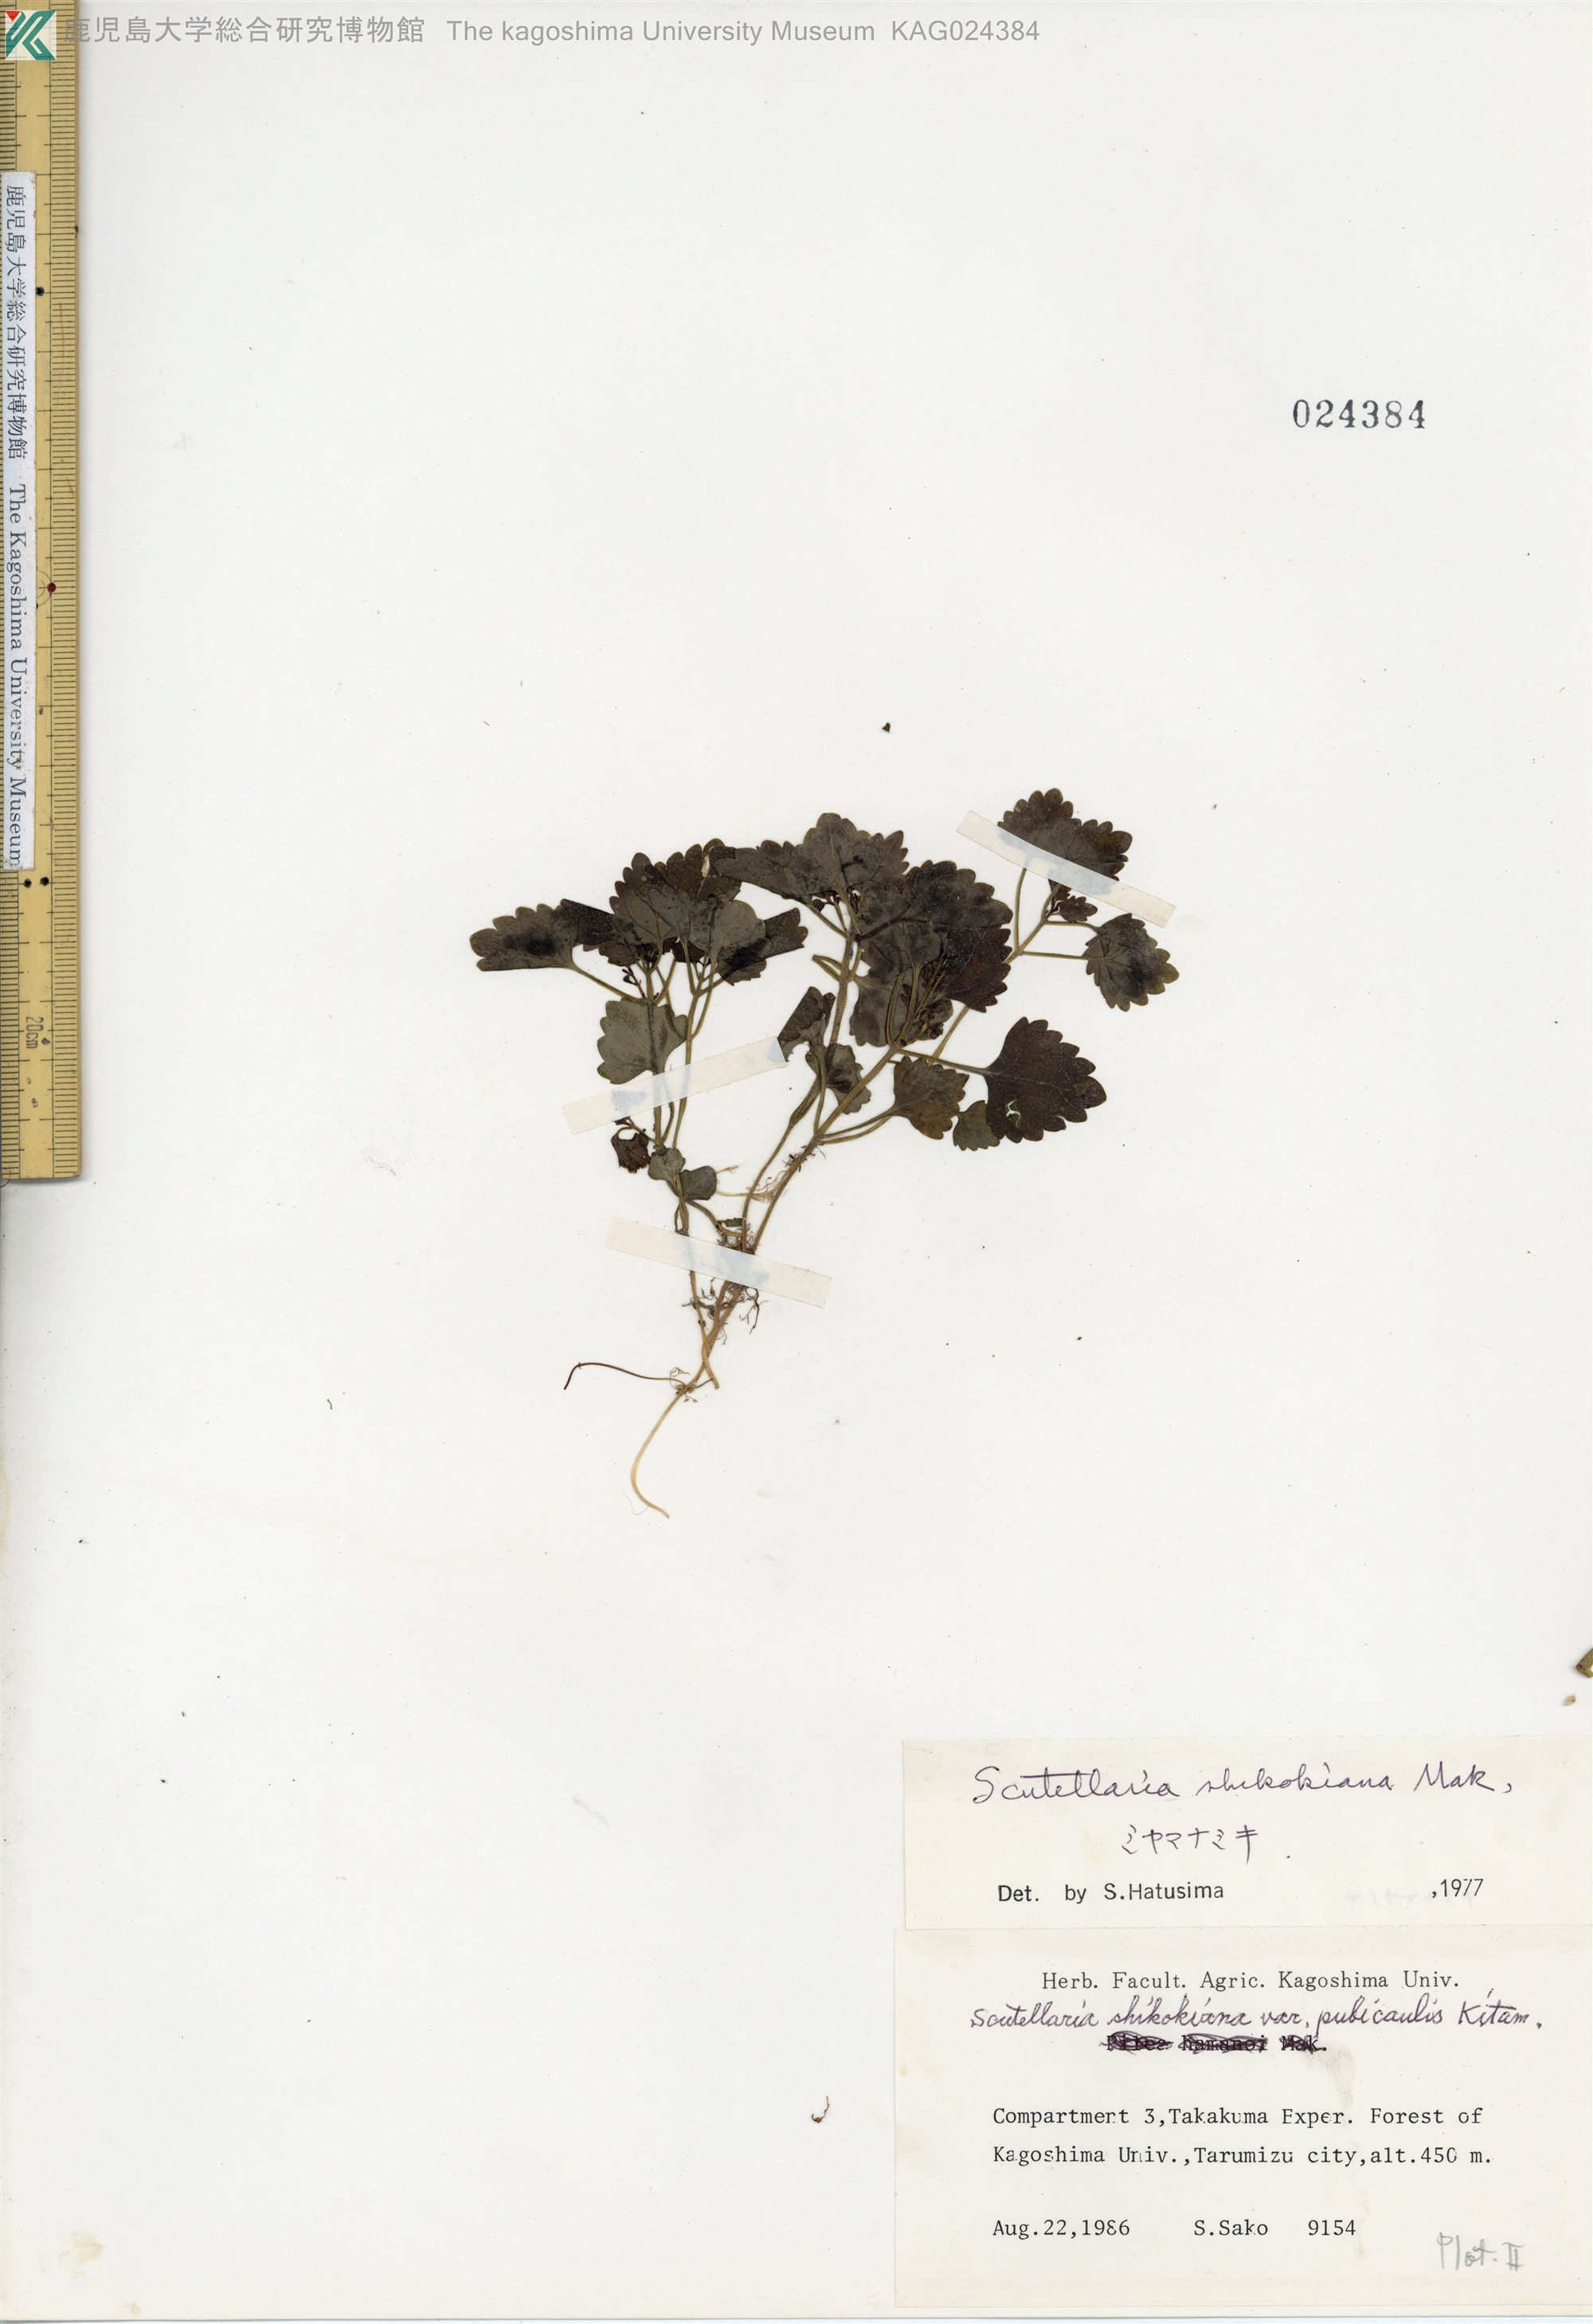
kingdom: Plantae
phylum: Tracheophyta
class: Magnoliopsida
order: Lamiales
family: Lamiaceae
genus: Scutellaria
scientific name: Scutellaria shikokiana
